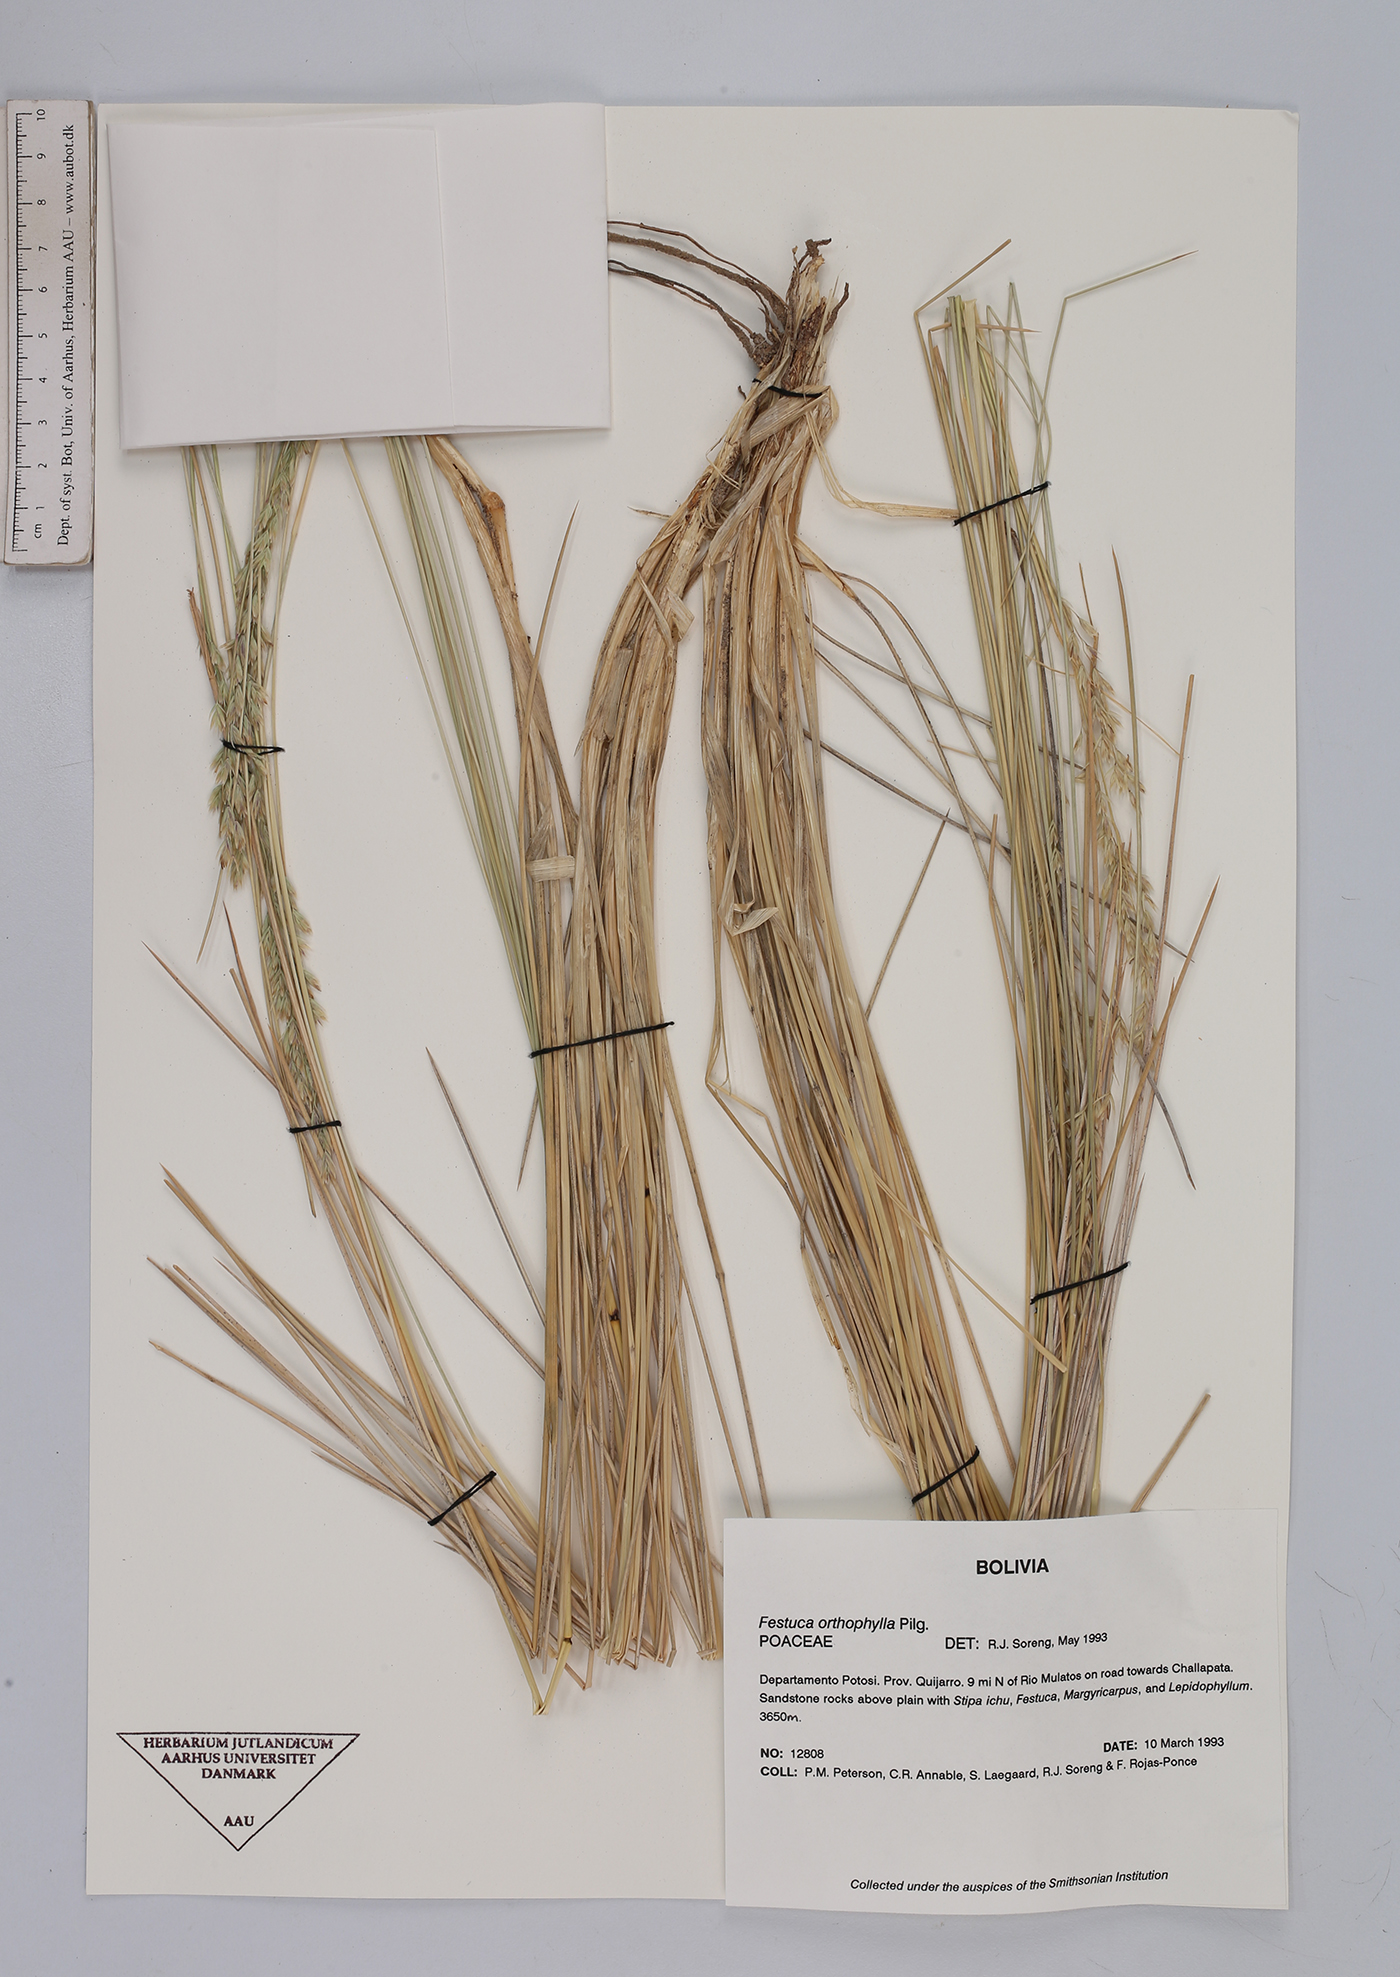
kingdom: Plantae
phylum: Tracheophyta
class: Liliopsida
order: Poales
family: Poaceae
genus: Festuca
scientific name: Festuca chrysophylla
